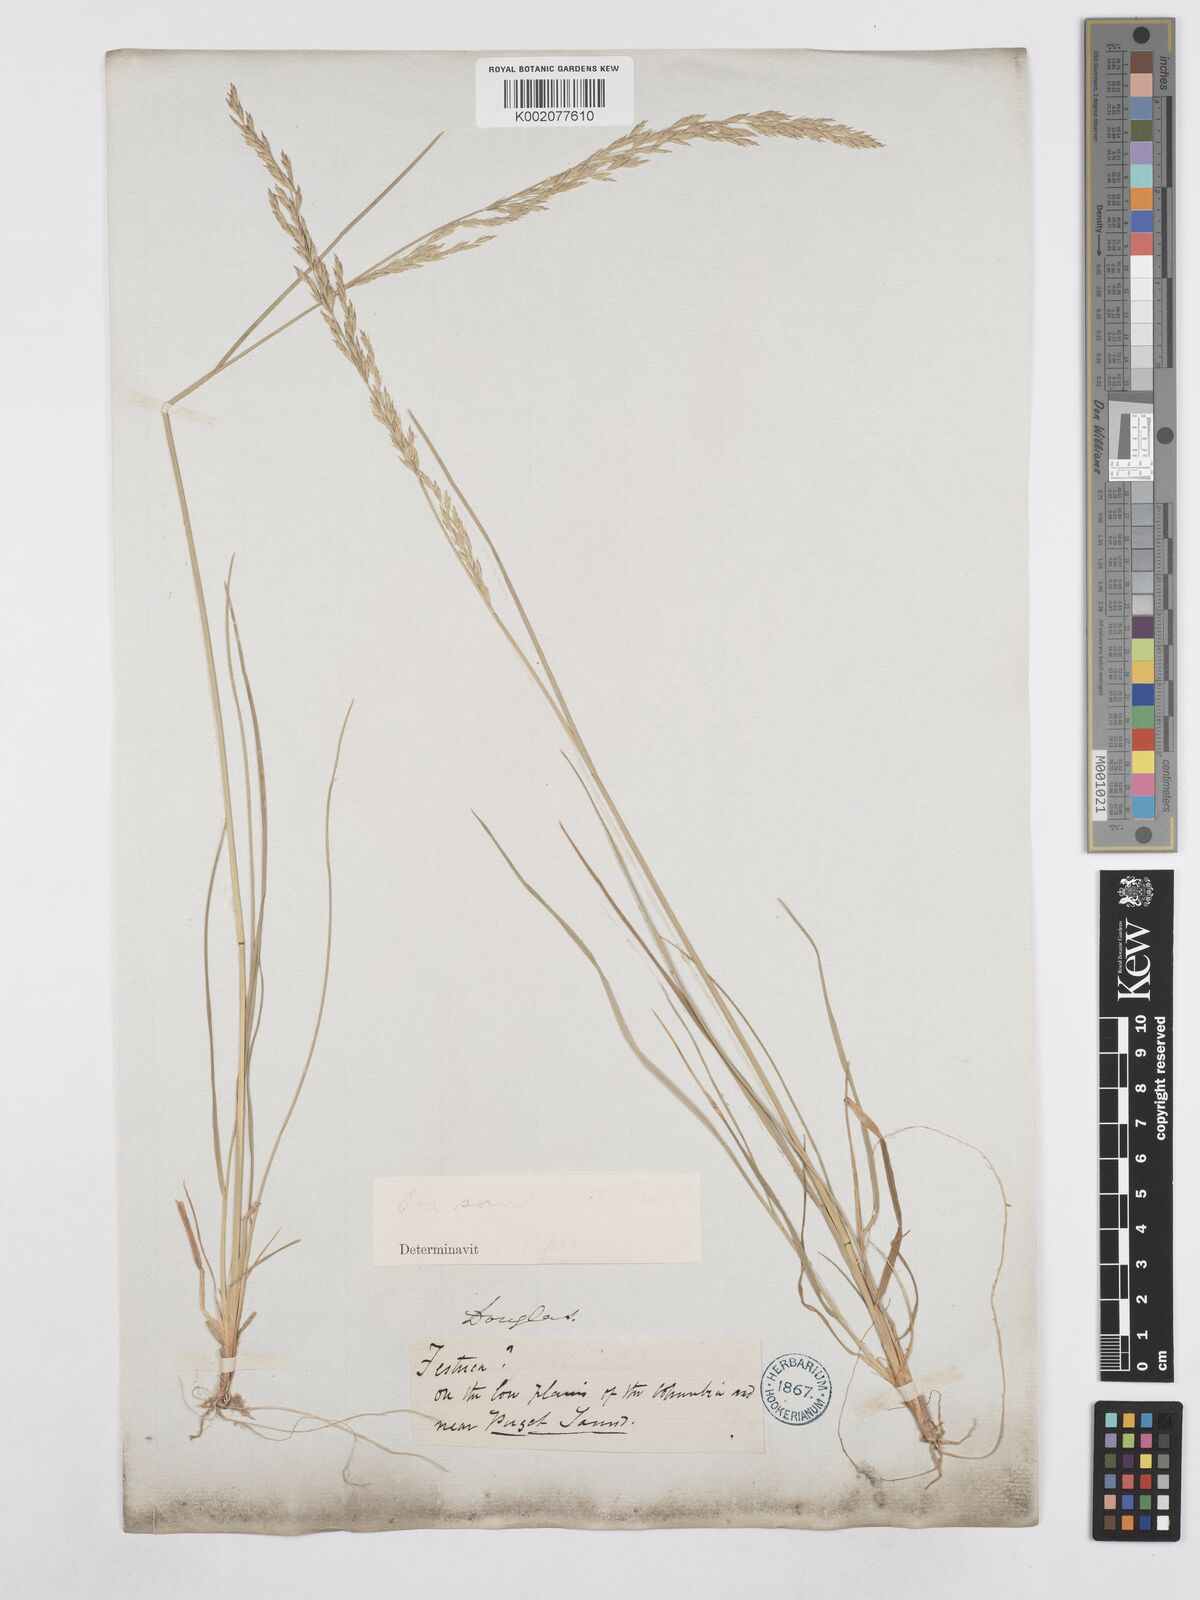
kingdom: Plantae
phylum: Tracheophyta
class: Liliopsida
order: Poales
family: Poaceae
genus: Poa
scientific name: Poa secunda
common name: Sandberg bluegrass
